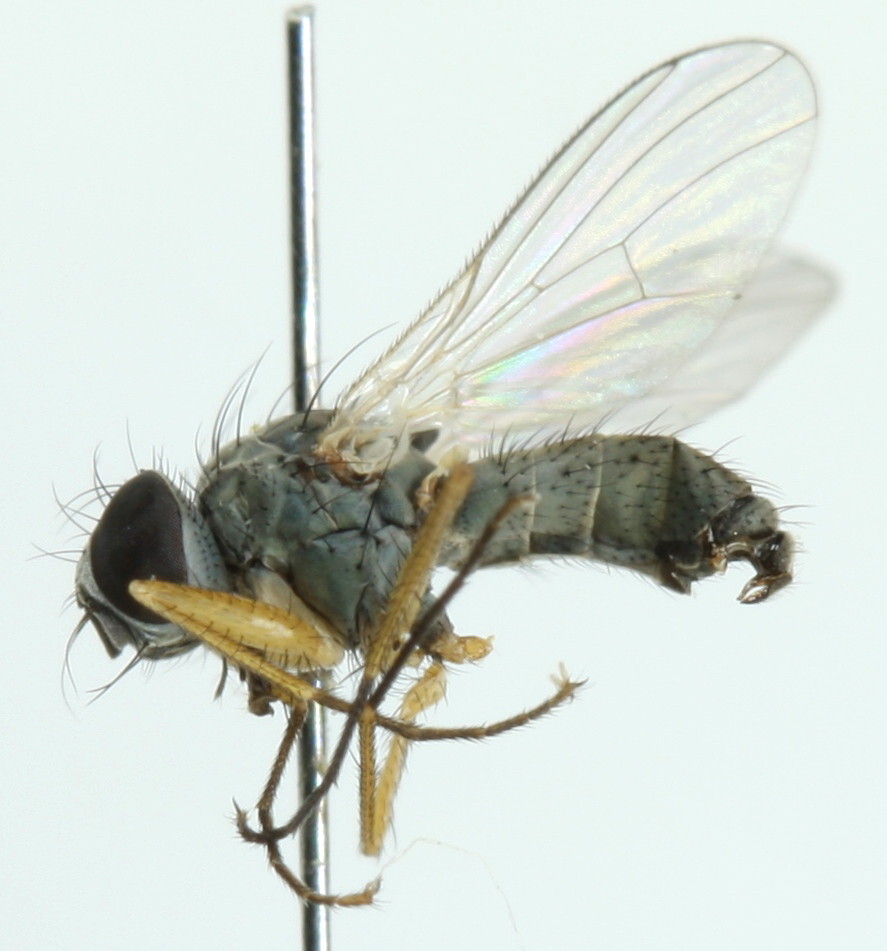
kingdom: Animalia
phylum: Arthropoda
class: Insecta
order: Diptera
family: Muscidae
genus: Coenosia
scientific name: Coenosia pumila
